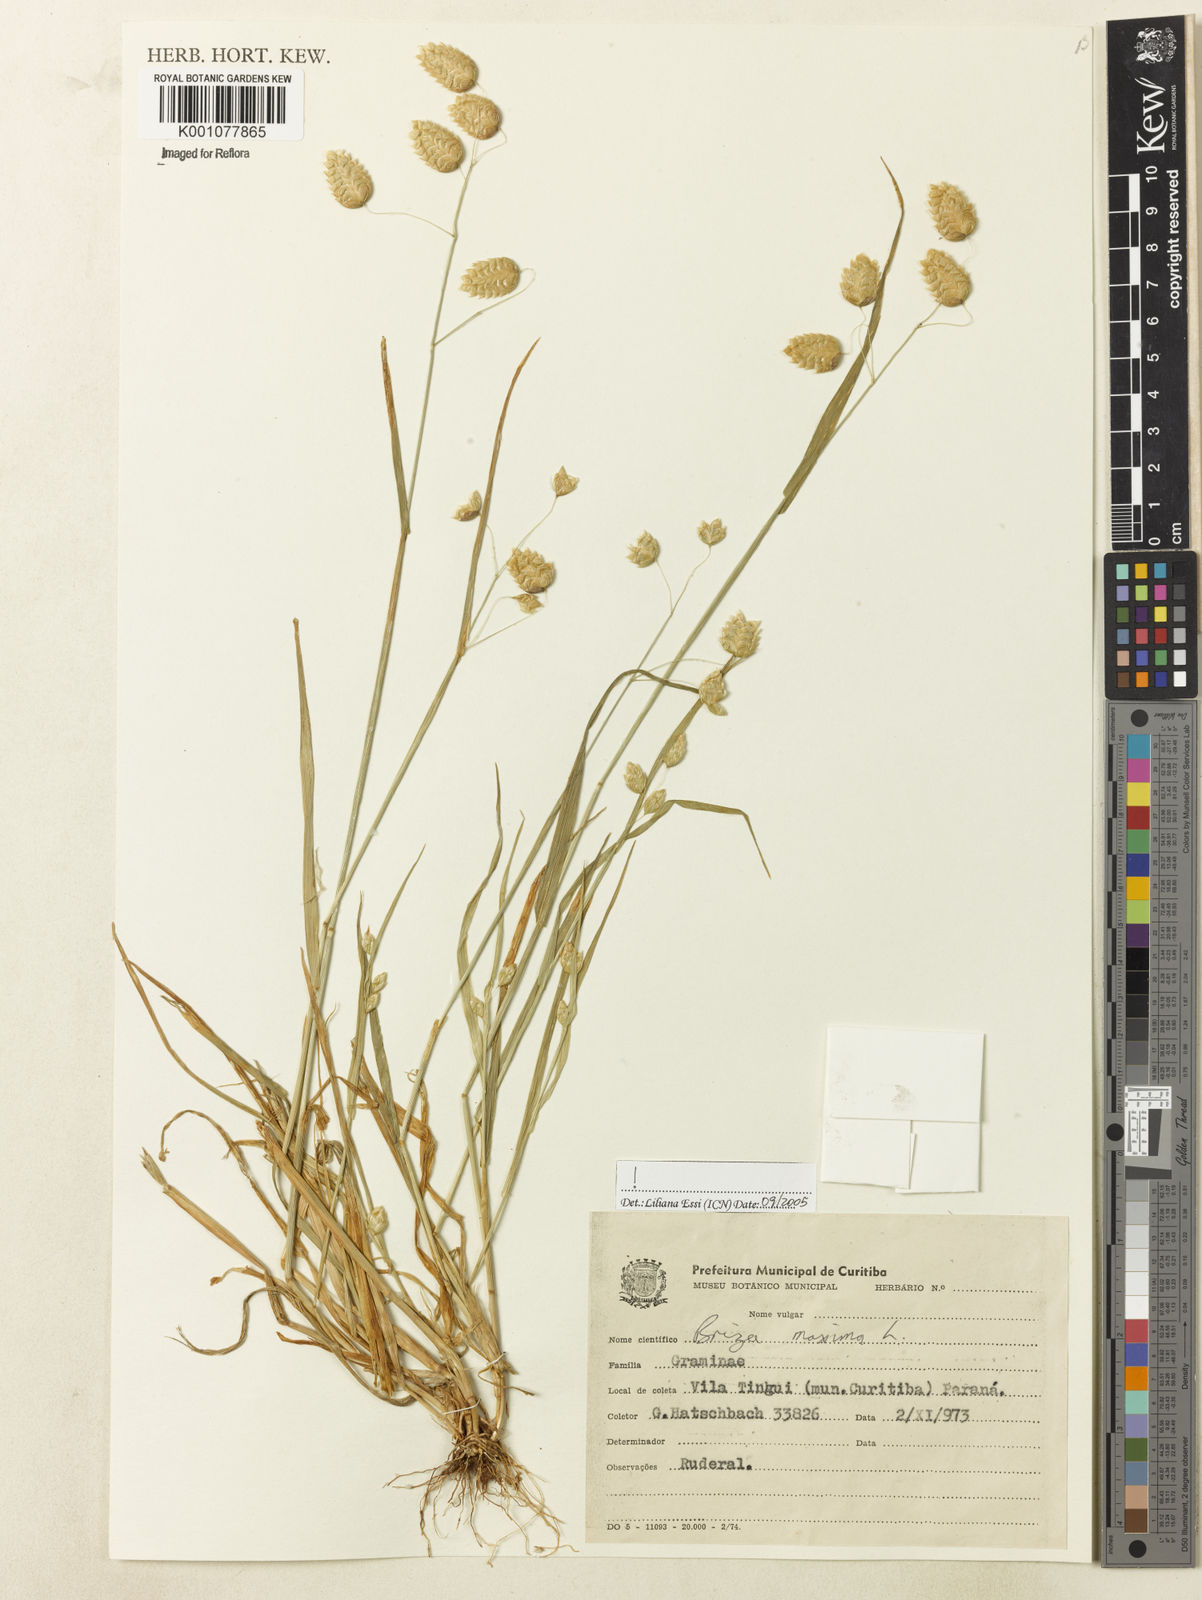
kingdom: Plantae
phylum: Tracheophyta
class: Liliopsida
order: Poales
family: Poaceae
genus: Briza
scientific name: Briza maxima
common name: Big quakinggrass
